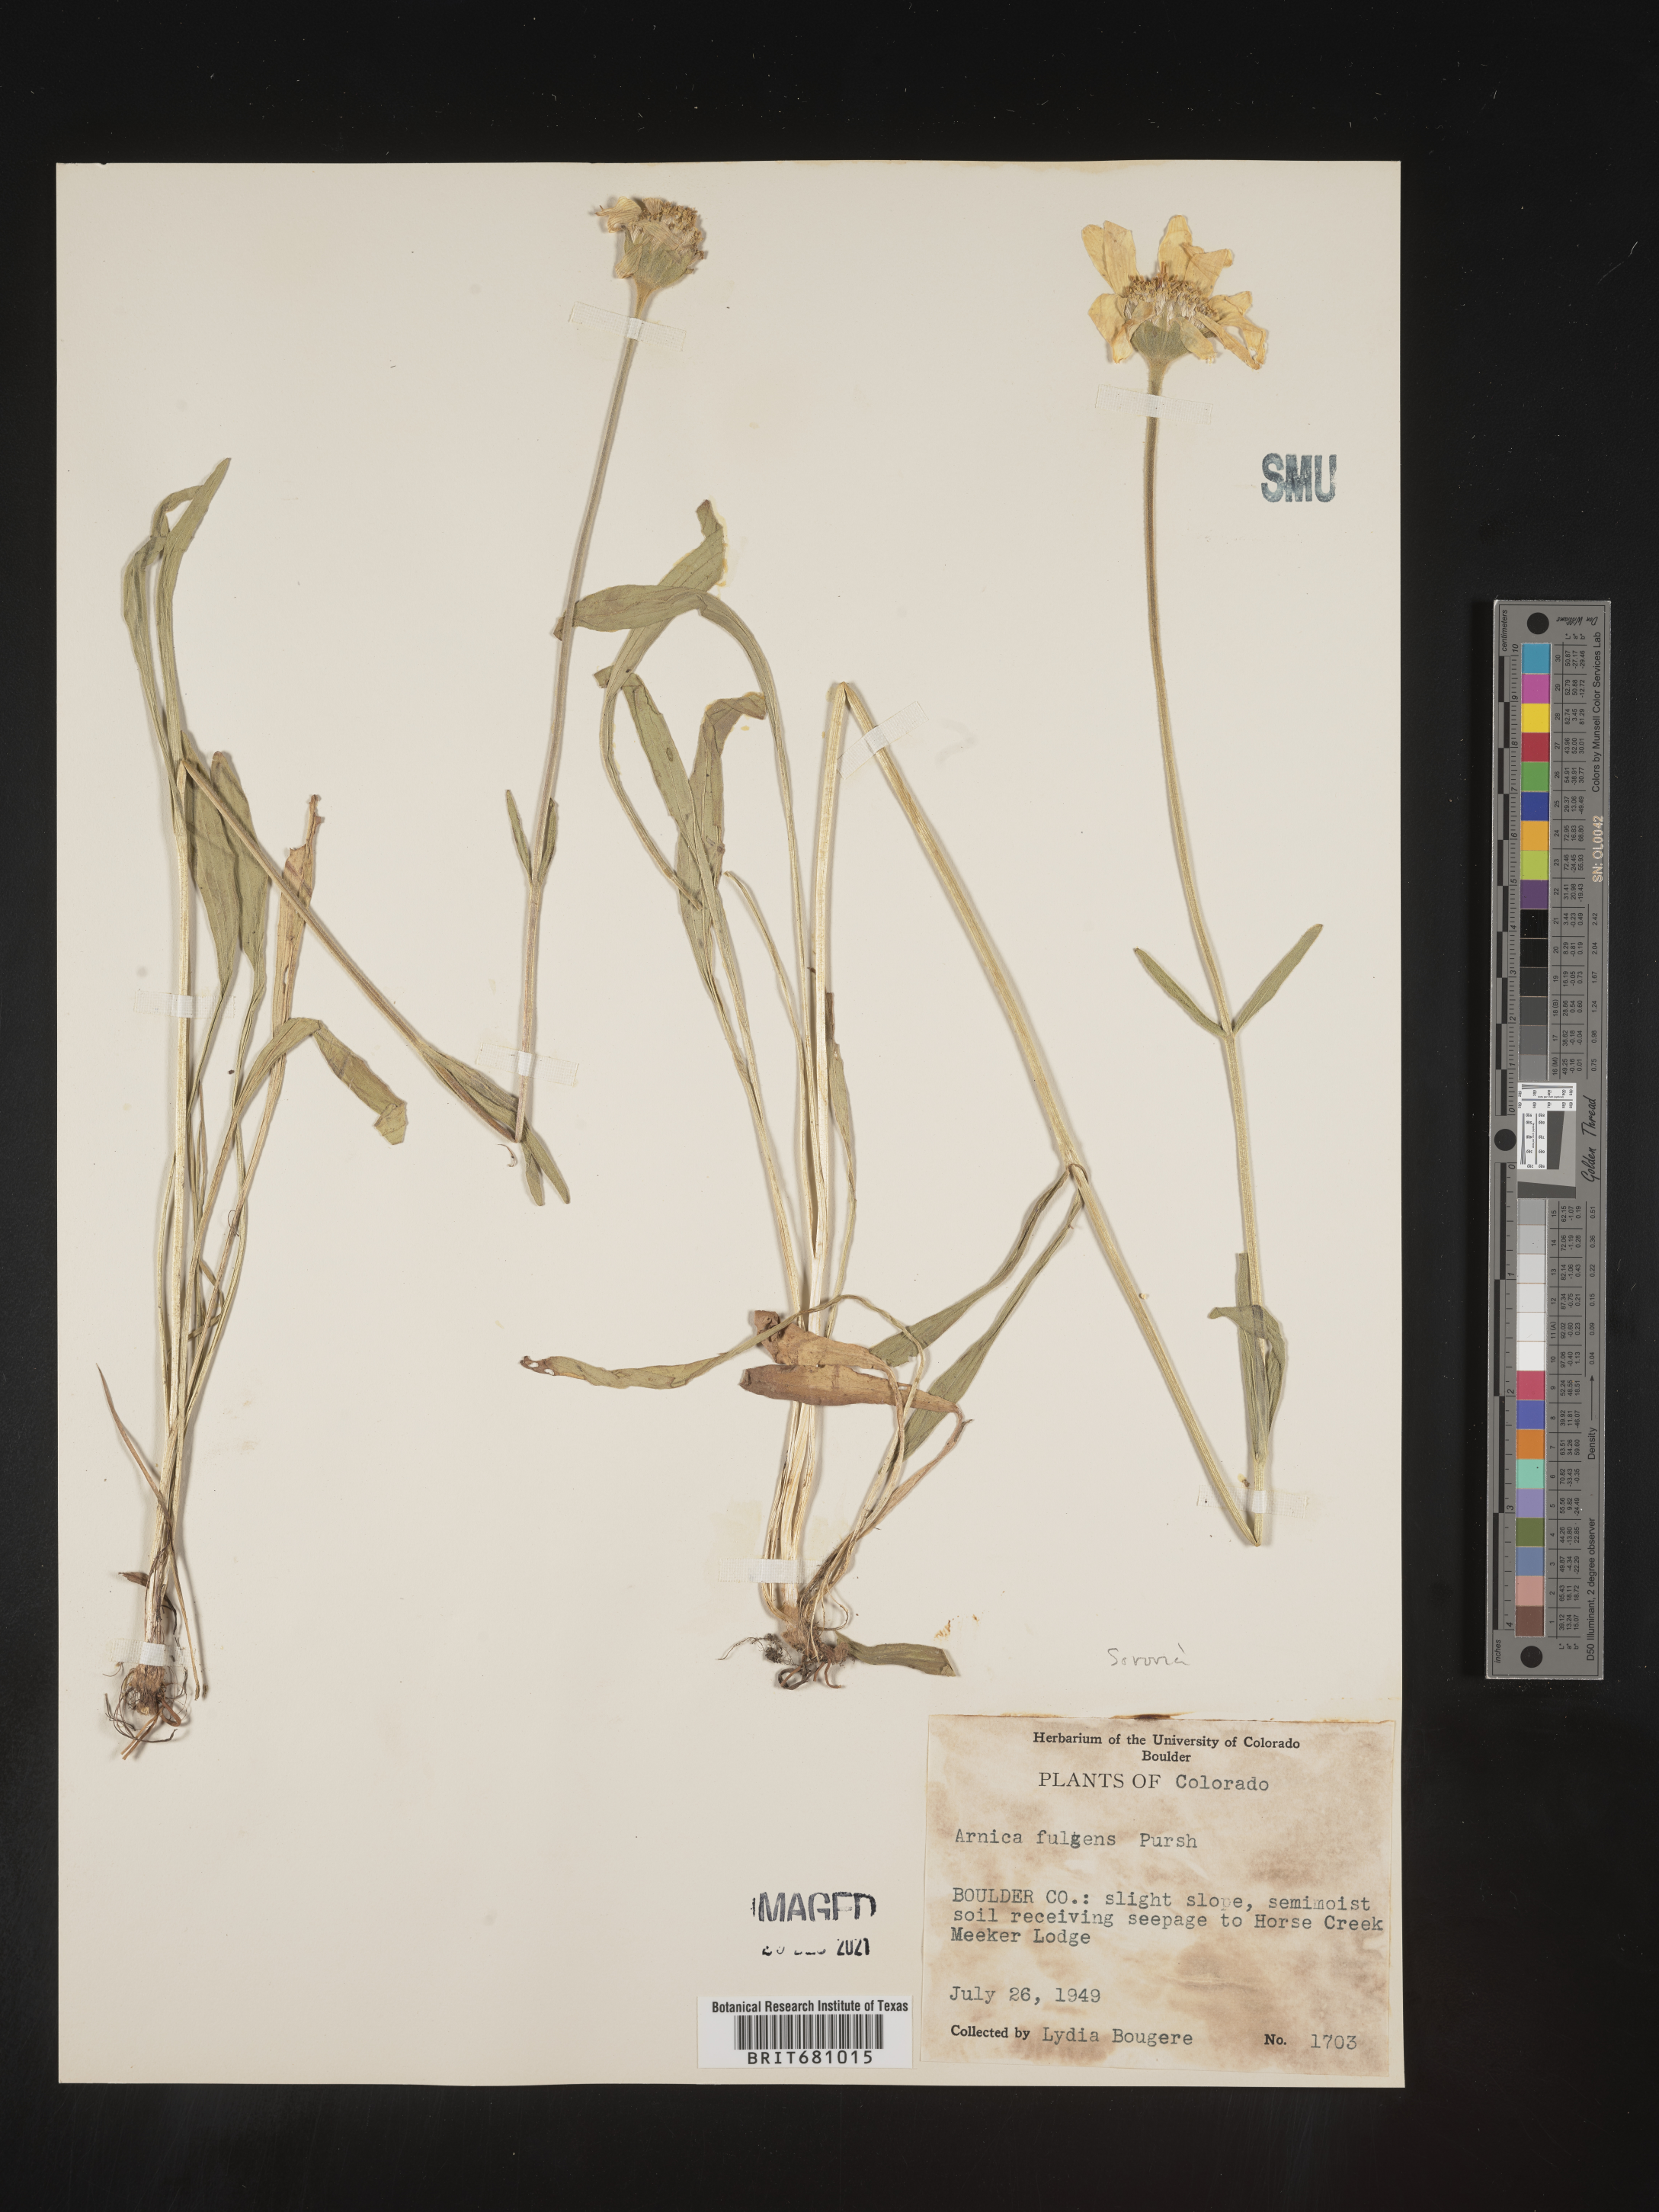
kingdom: Plantae
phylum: Tracheophyta
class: Magnoliopsida
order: Asterales
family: Asteraceae
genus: Arnica
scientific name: Arnica fulgens
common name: Foothill arnica
